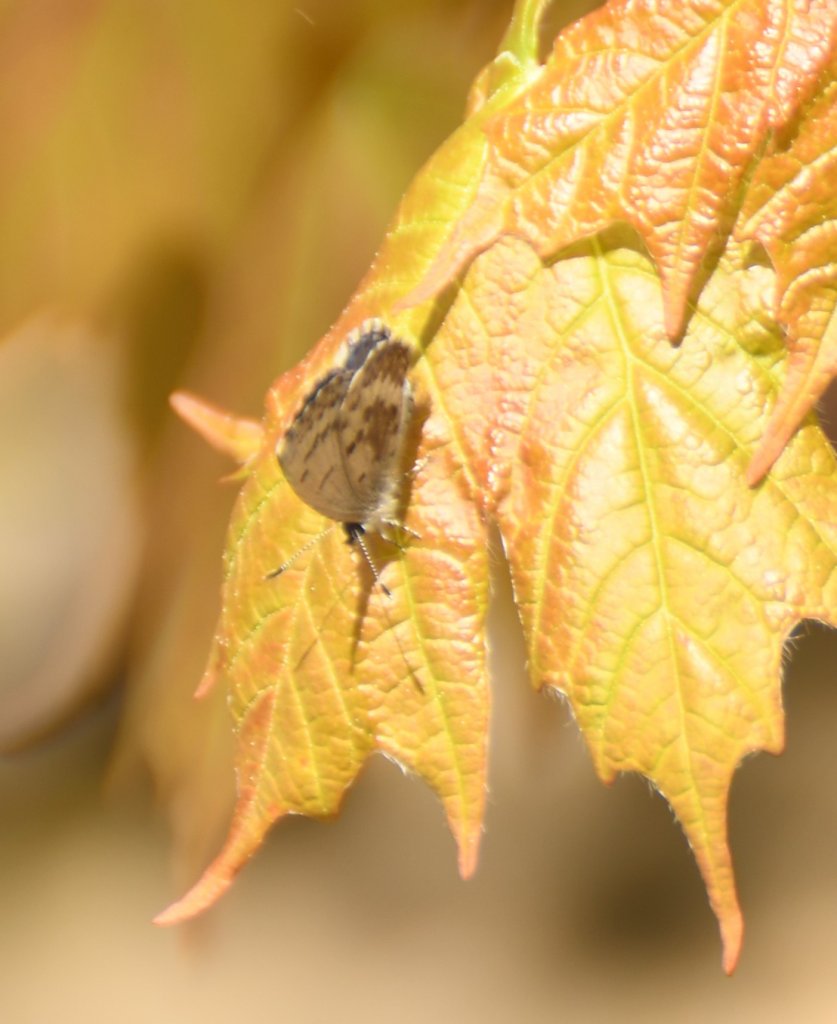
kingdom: Animalia
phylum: Arthropoda
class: Insecta
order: Lepidoptera
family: Lycaenidae
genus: Celastrina
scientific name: Celastrina lucia
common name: Northern Spring Azure
